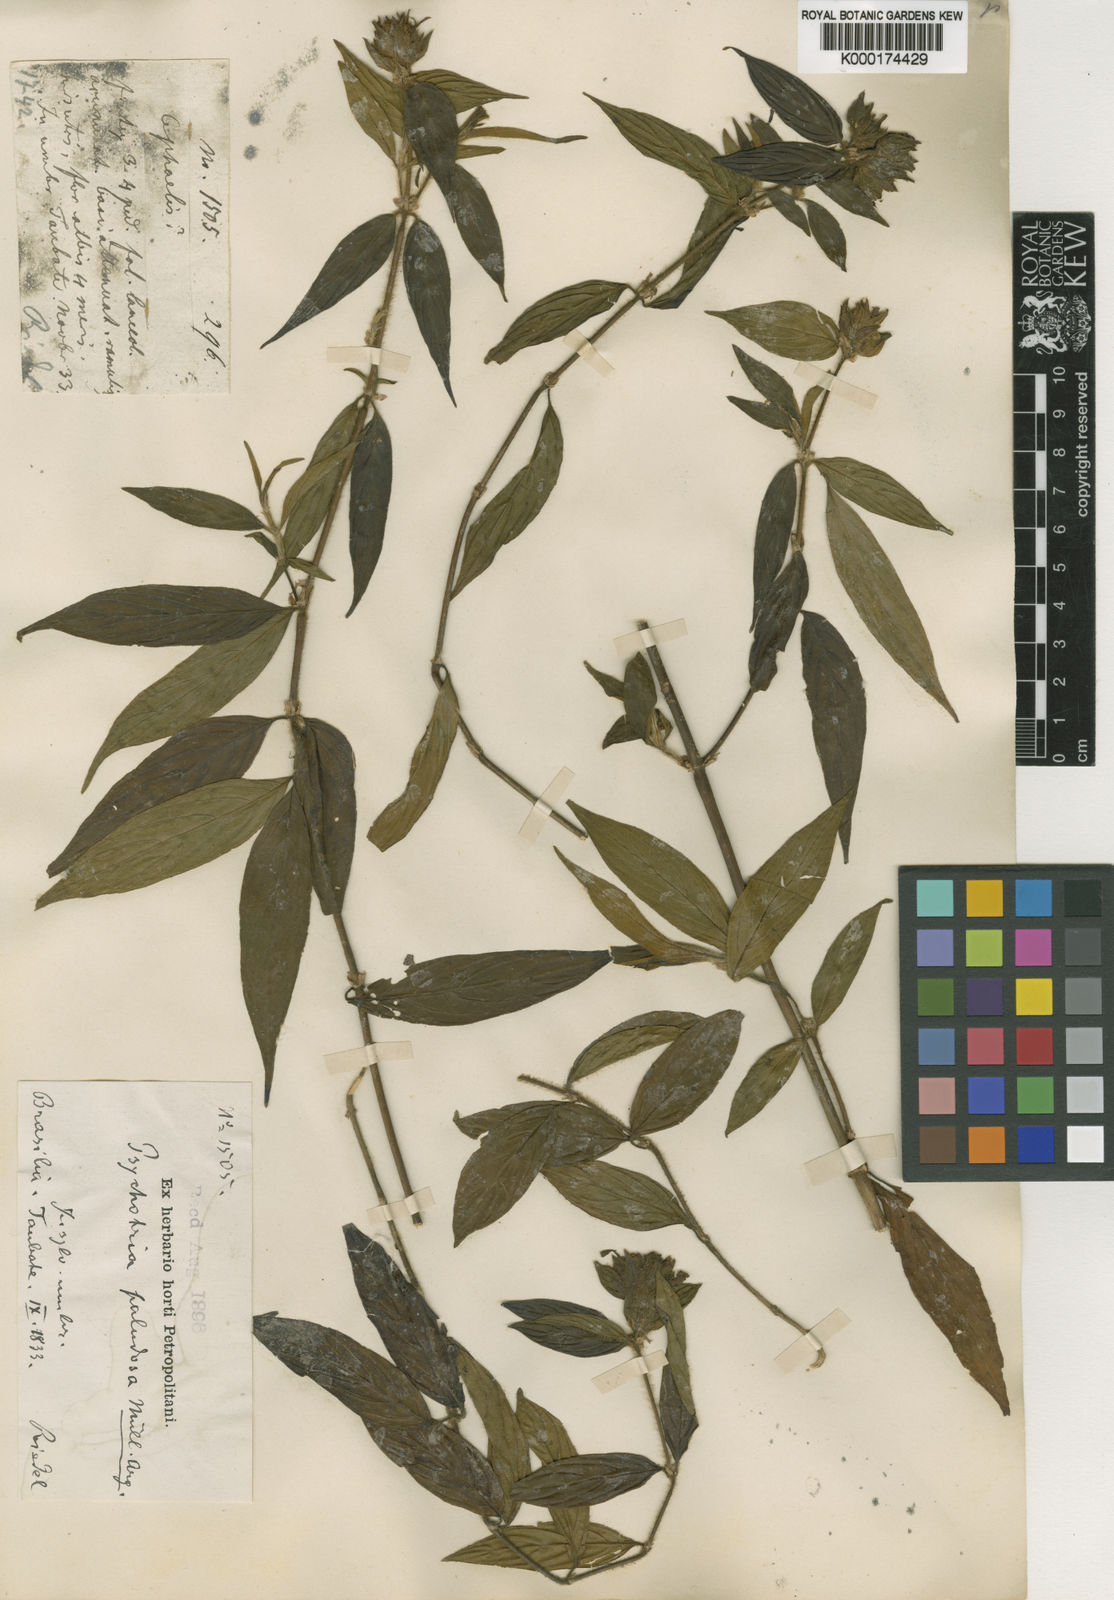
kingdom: Plantae
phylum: Tracheophyta
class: Magnoliopsida
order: Gentianales
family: Rubiaceae
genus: Psychotria
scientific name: Psychotria
